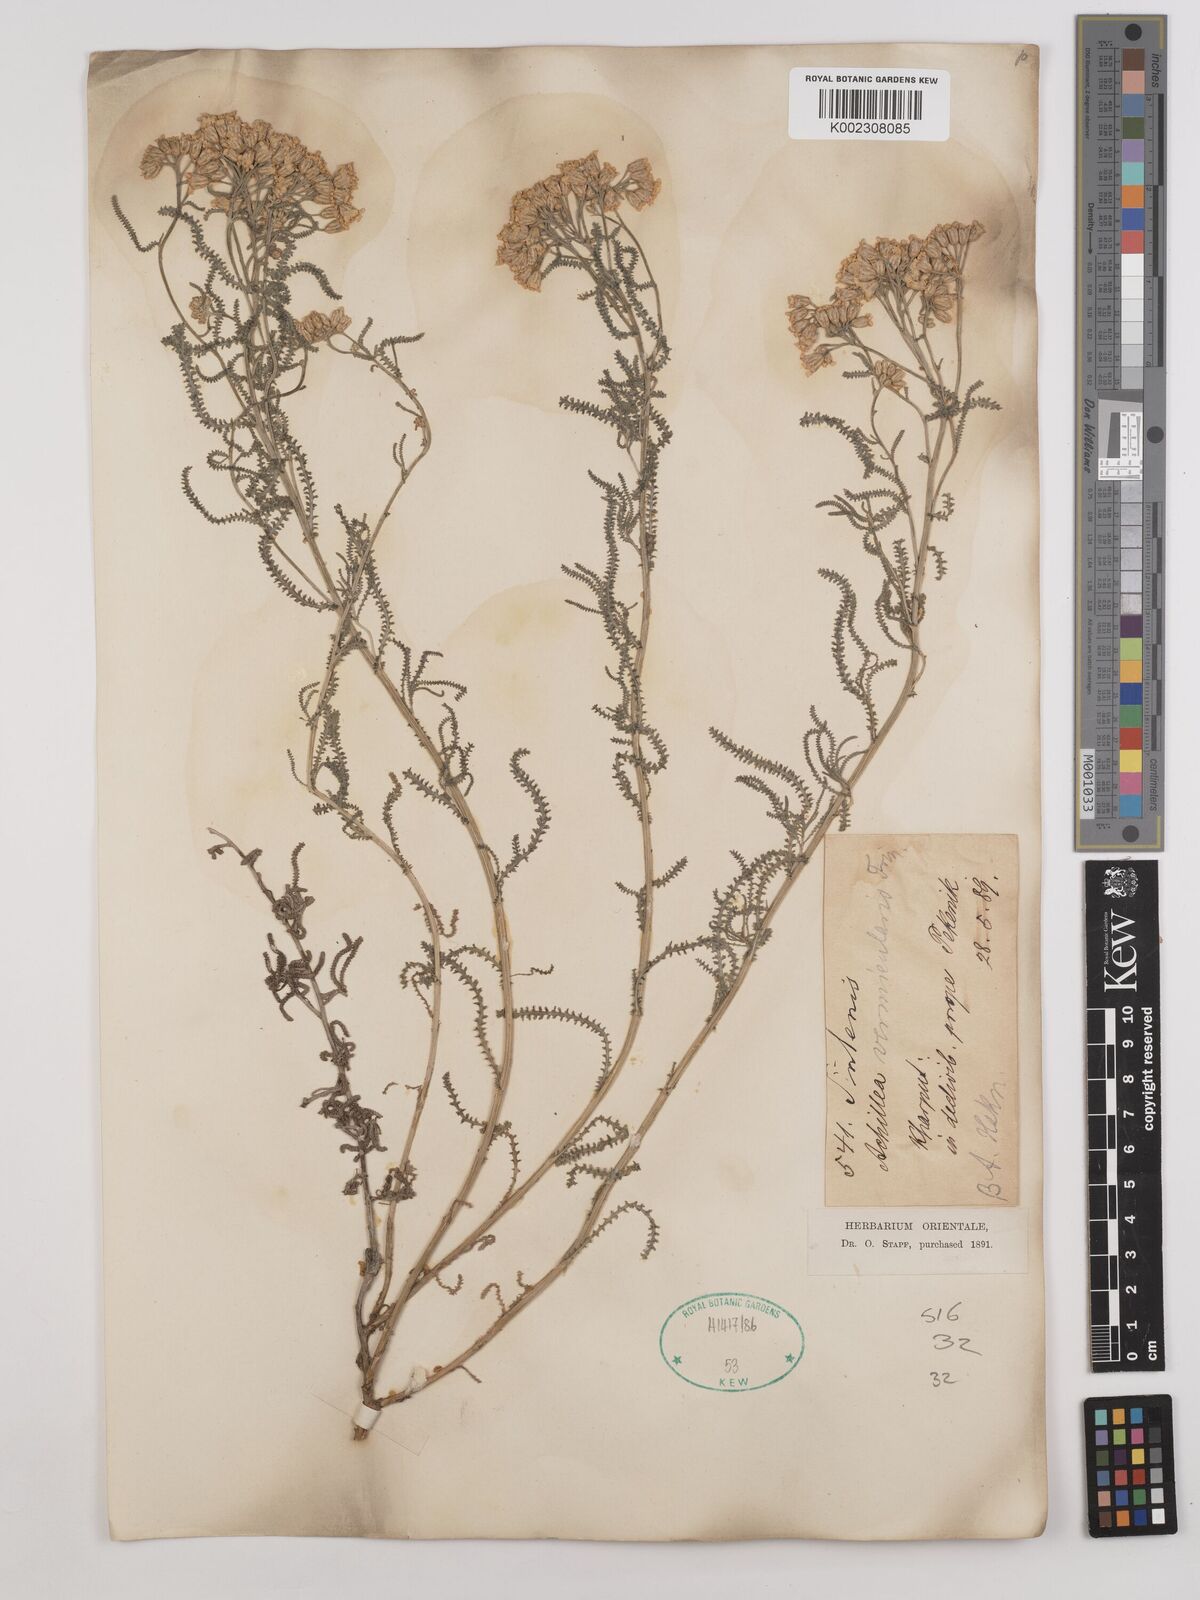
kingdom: Plantae
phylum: Tracheophyta
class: Magnoliopsida
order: Asterales
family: Asteraceae
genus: Achillea
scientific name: Achillea vermicularis
